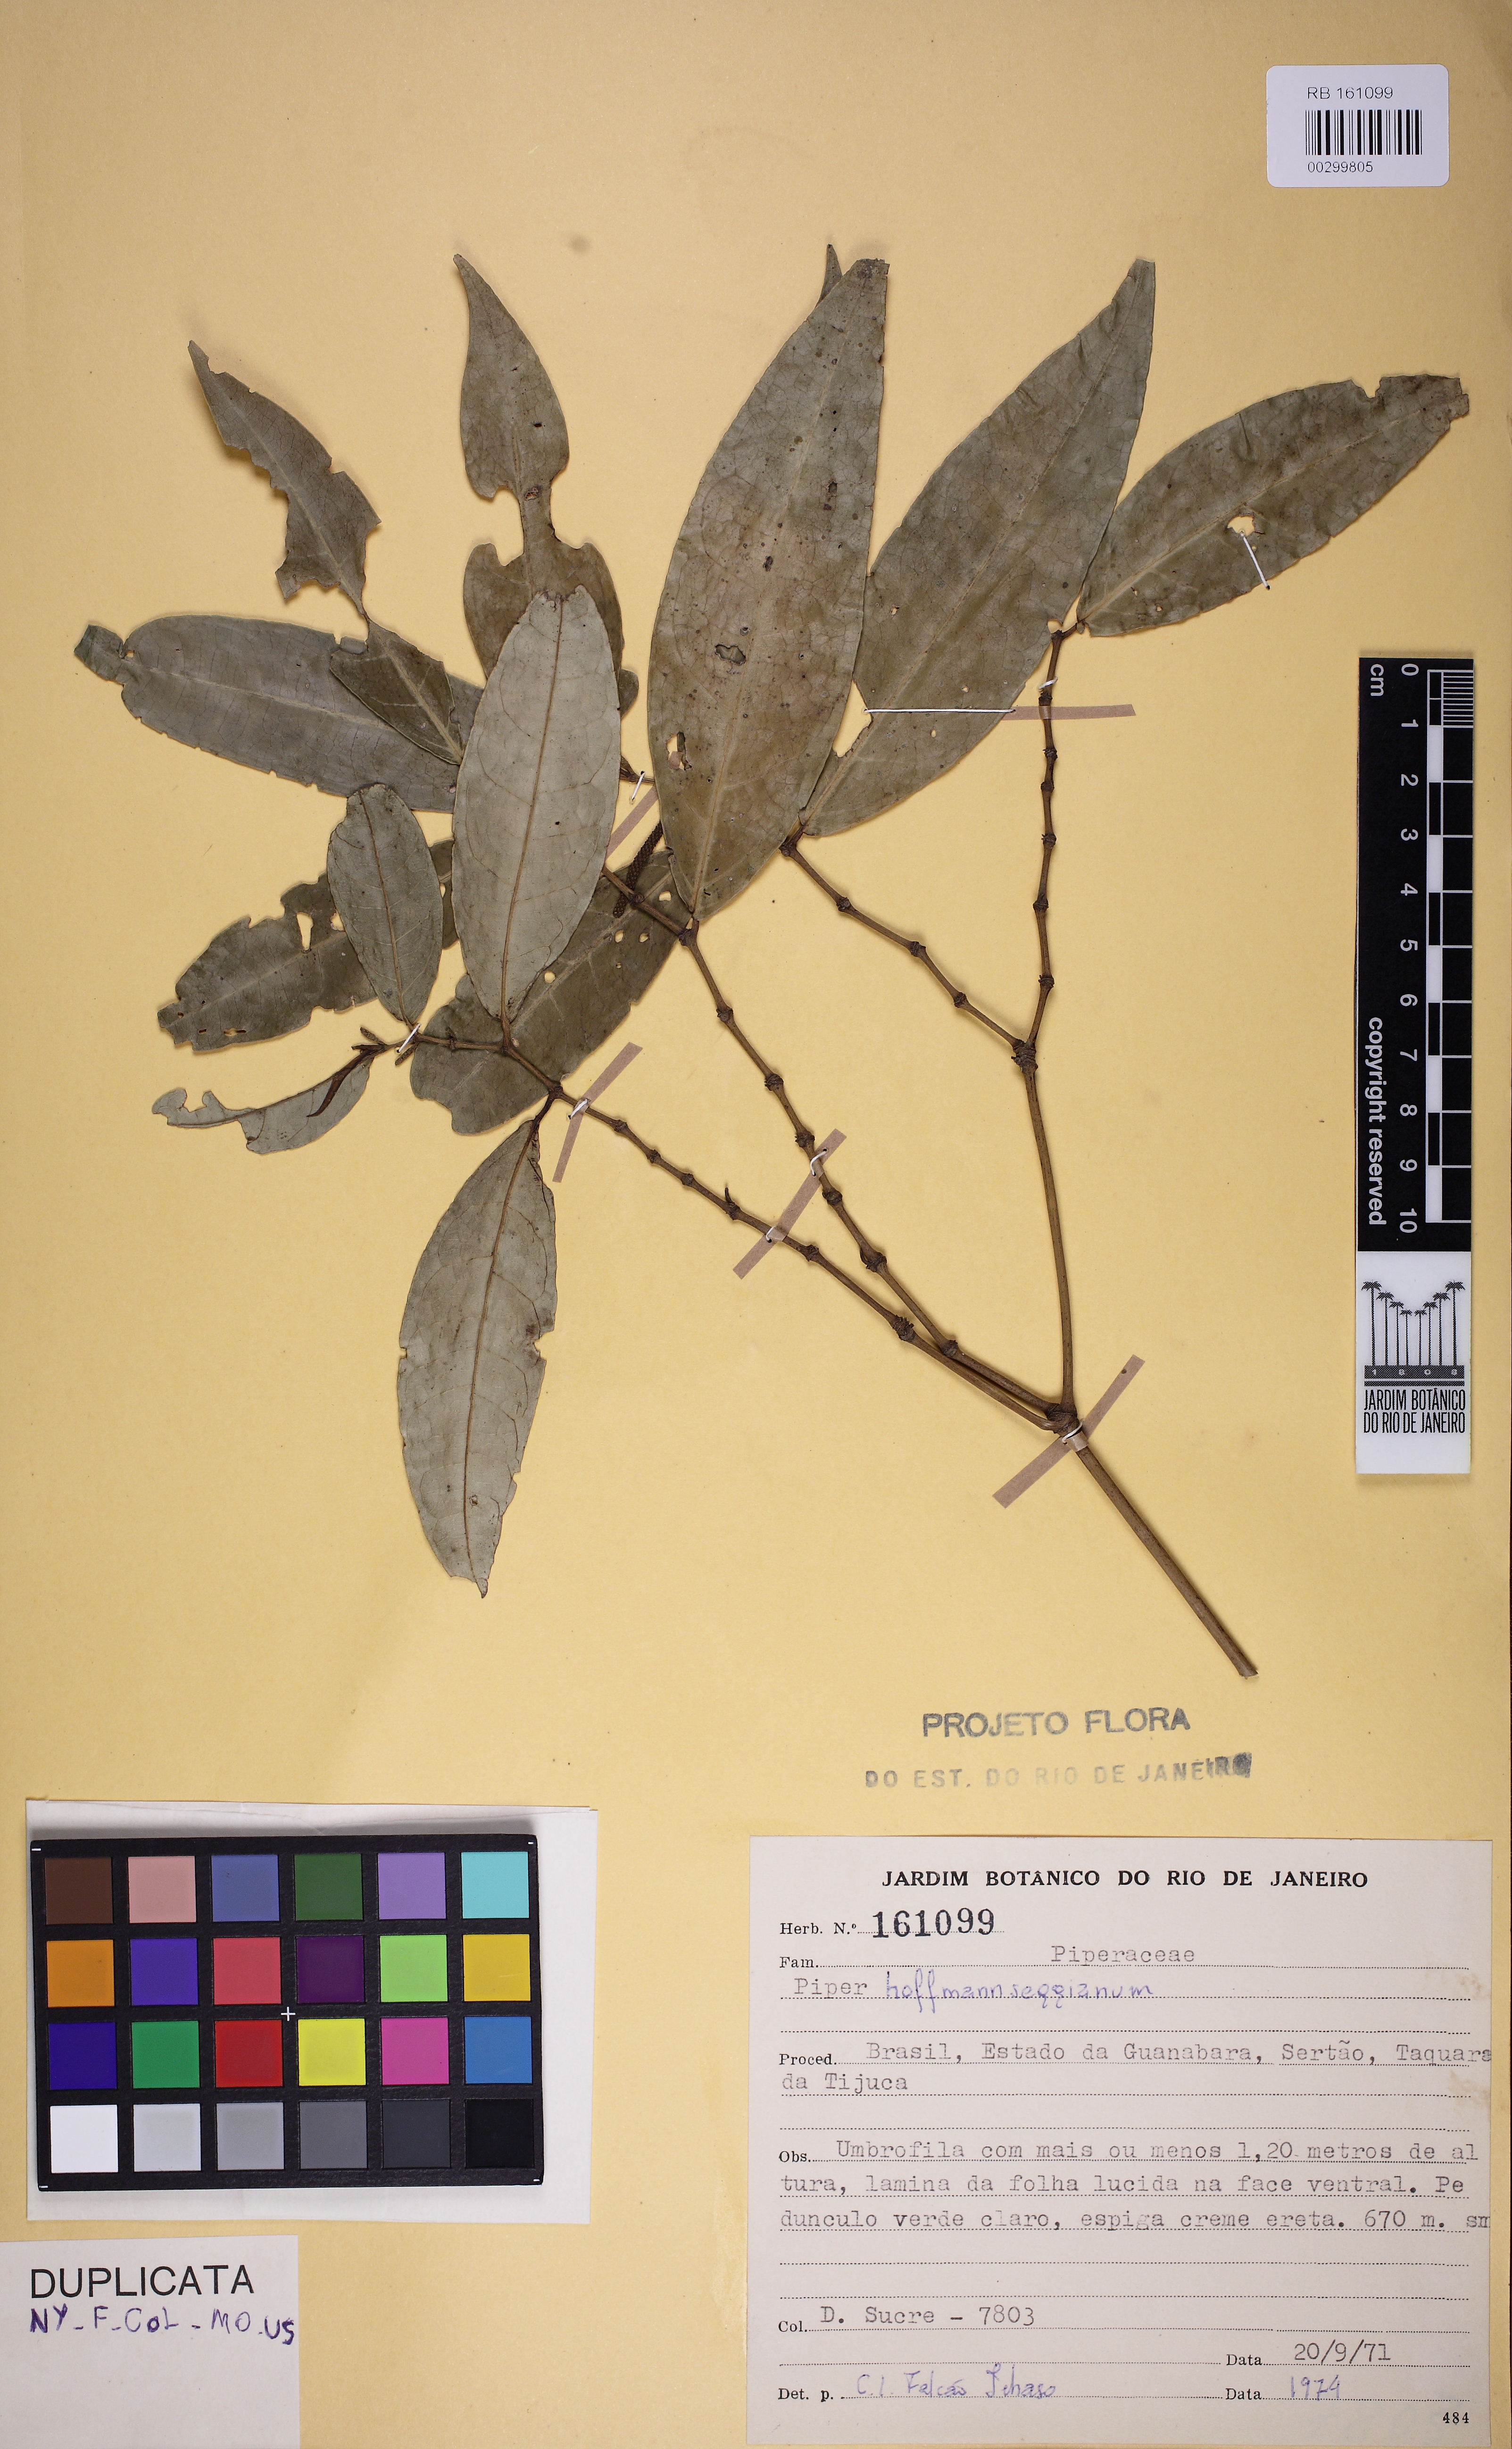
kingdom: Plantae
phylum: Tracheophyta
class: Magnoliopsida
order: Piperales
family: Piperaceae
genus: Piper
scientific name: Piper hoffmannseggianum
